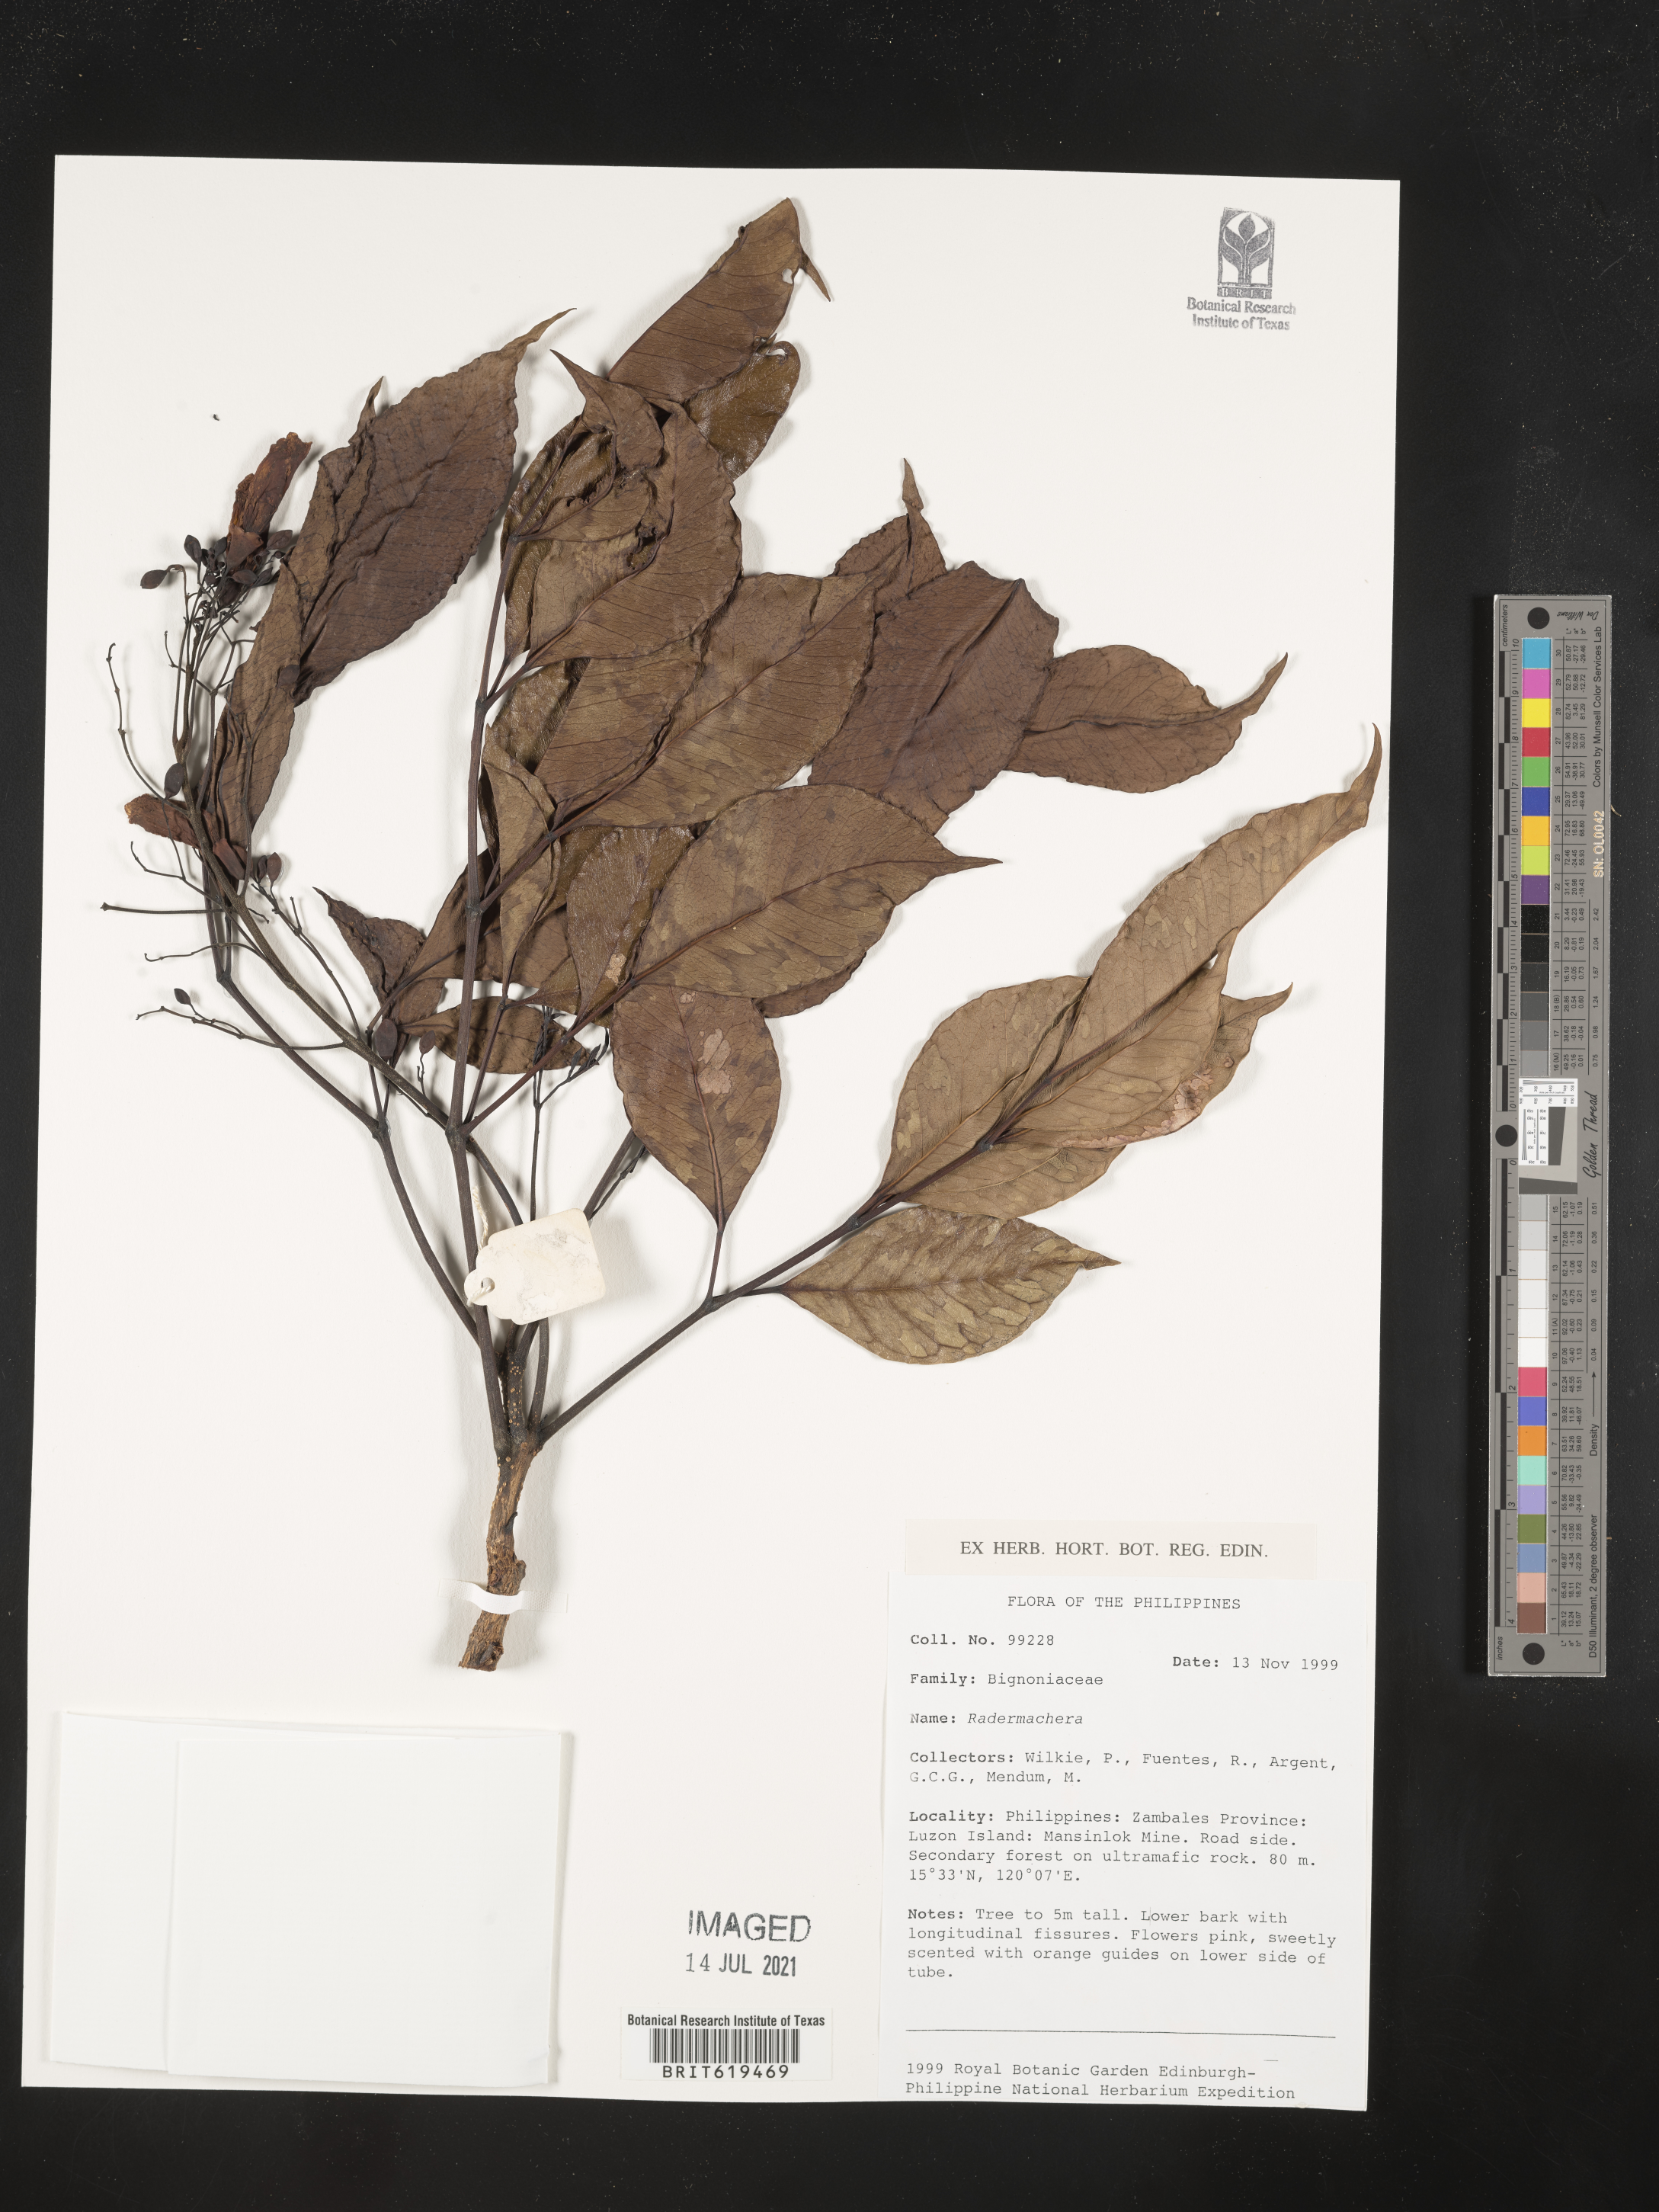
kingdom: Plantae
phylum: Tracheophyta
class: Magnoliopsida
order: Lamiales
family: Bignoniaceae
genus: Radermachera
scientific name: Radermachera
